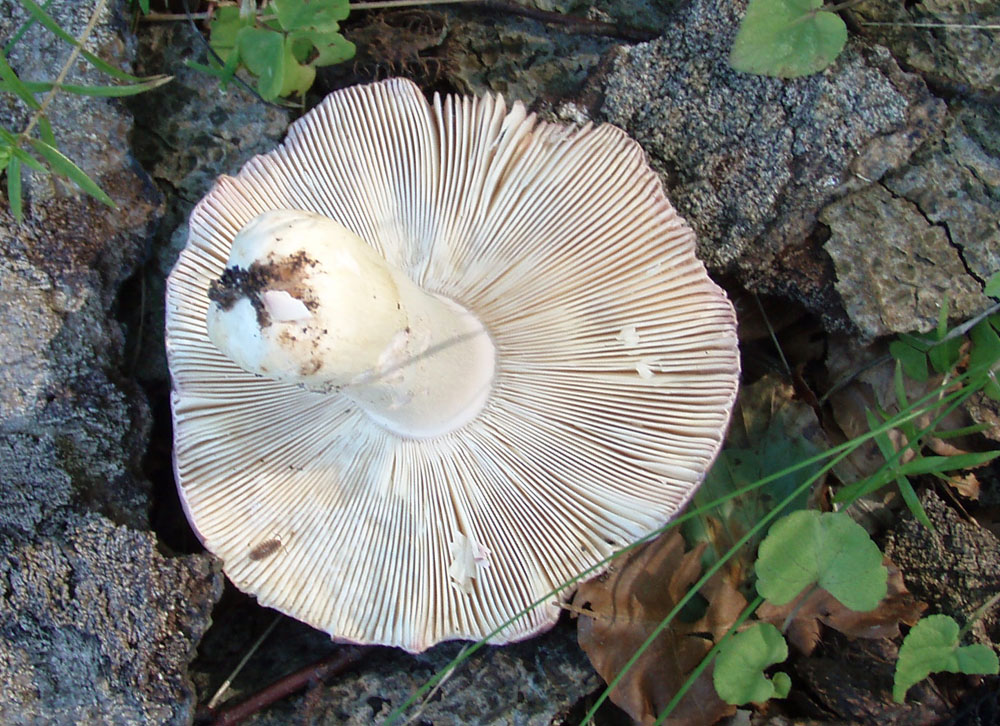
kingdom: Fungi
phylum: Basidiomycota
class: Agaricomycetes
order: Russulales
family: Russulaceae
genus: Russula
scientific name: Russula ionochlora
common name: violetgrøn skørhat
